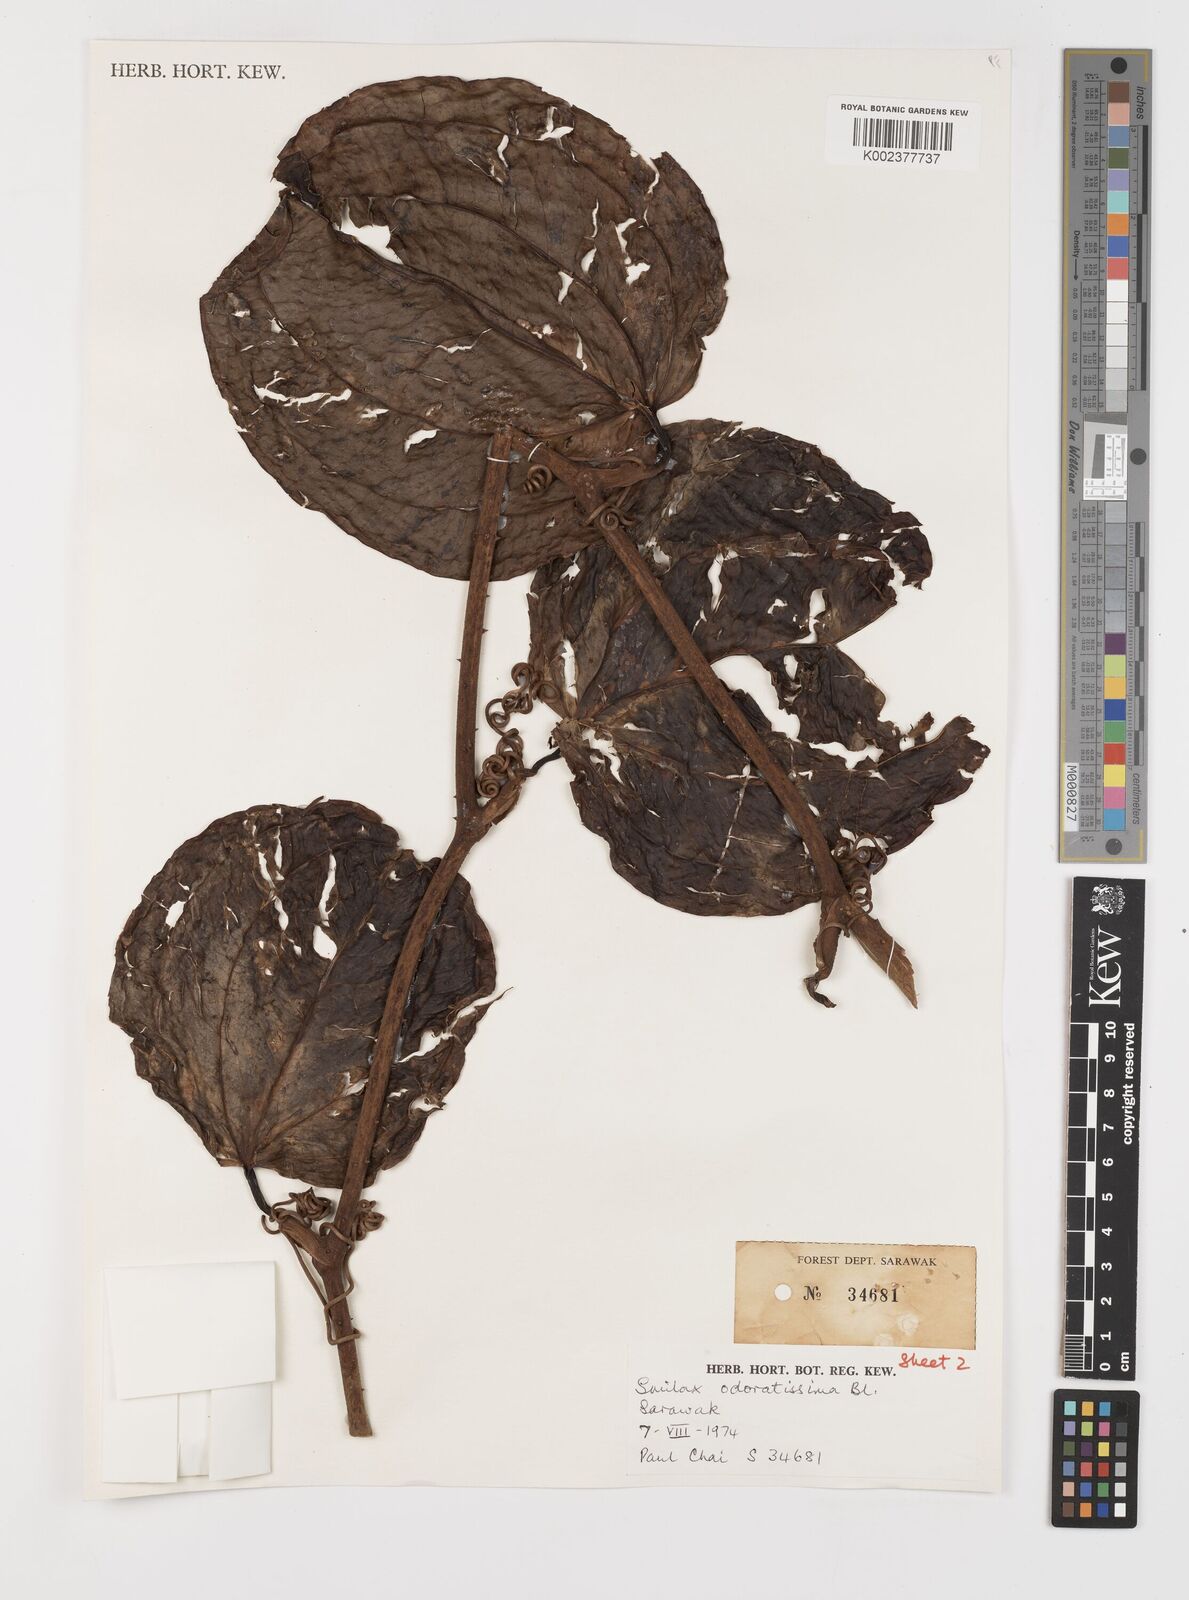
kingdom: Plantae
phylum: Tracheophyta
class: Liliopsida
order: Liliales
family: Smilacaceae
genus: Smilax
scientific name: Smilax odoratissima
